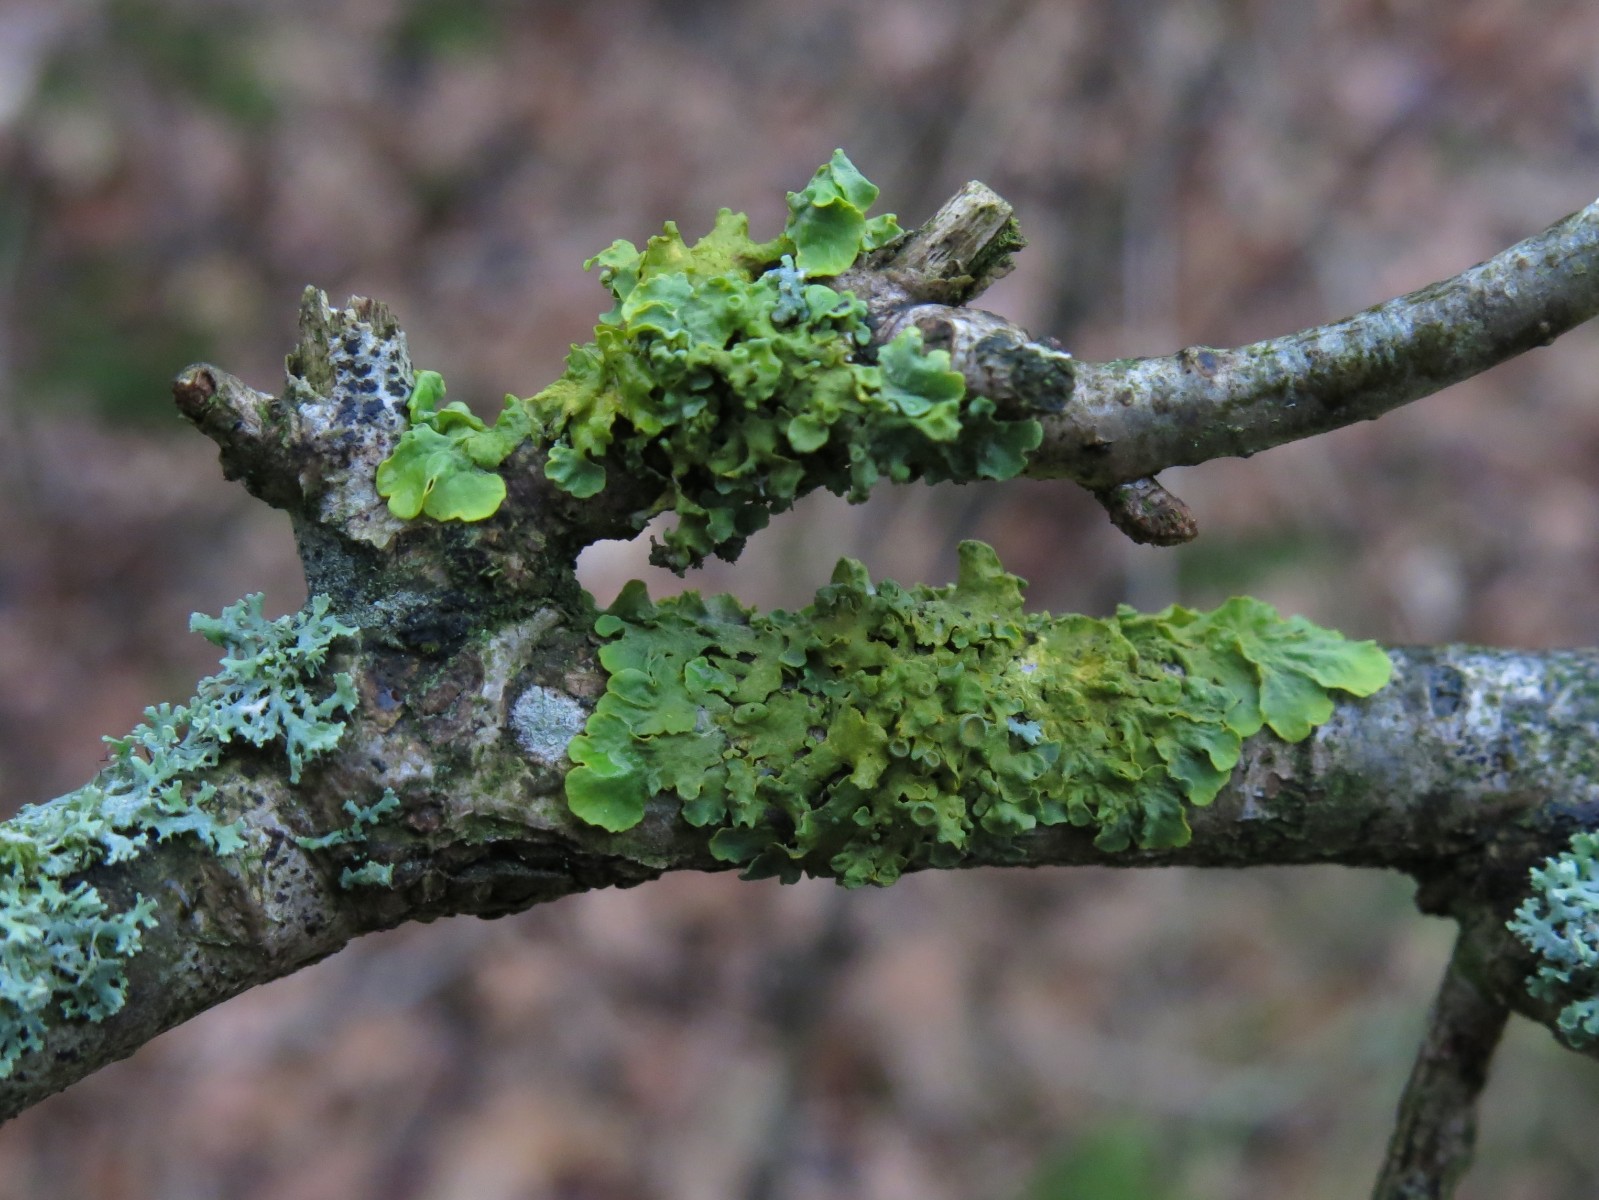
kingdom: Fungi
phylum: Ascomycota
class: Lecanoromycetes
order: Teloschistales
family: Teloschistaceae
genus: Xanthoria
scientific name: Xanthoria parietina
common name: almindelig væggelav
